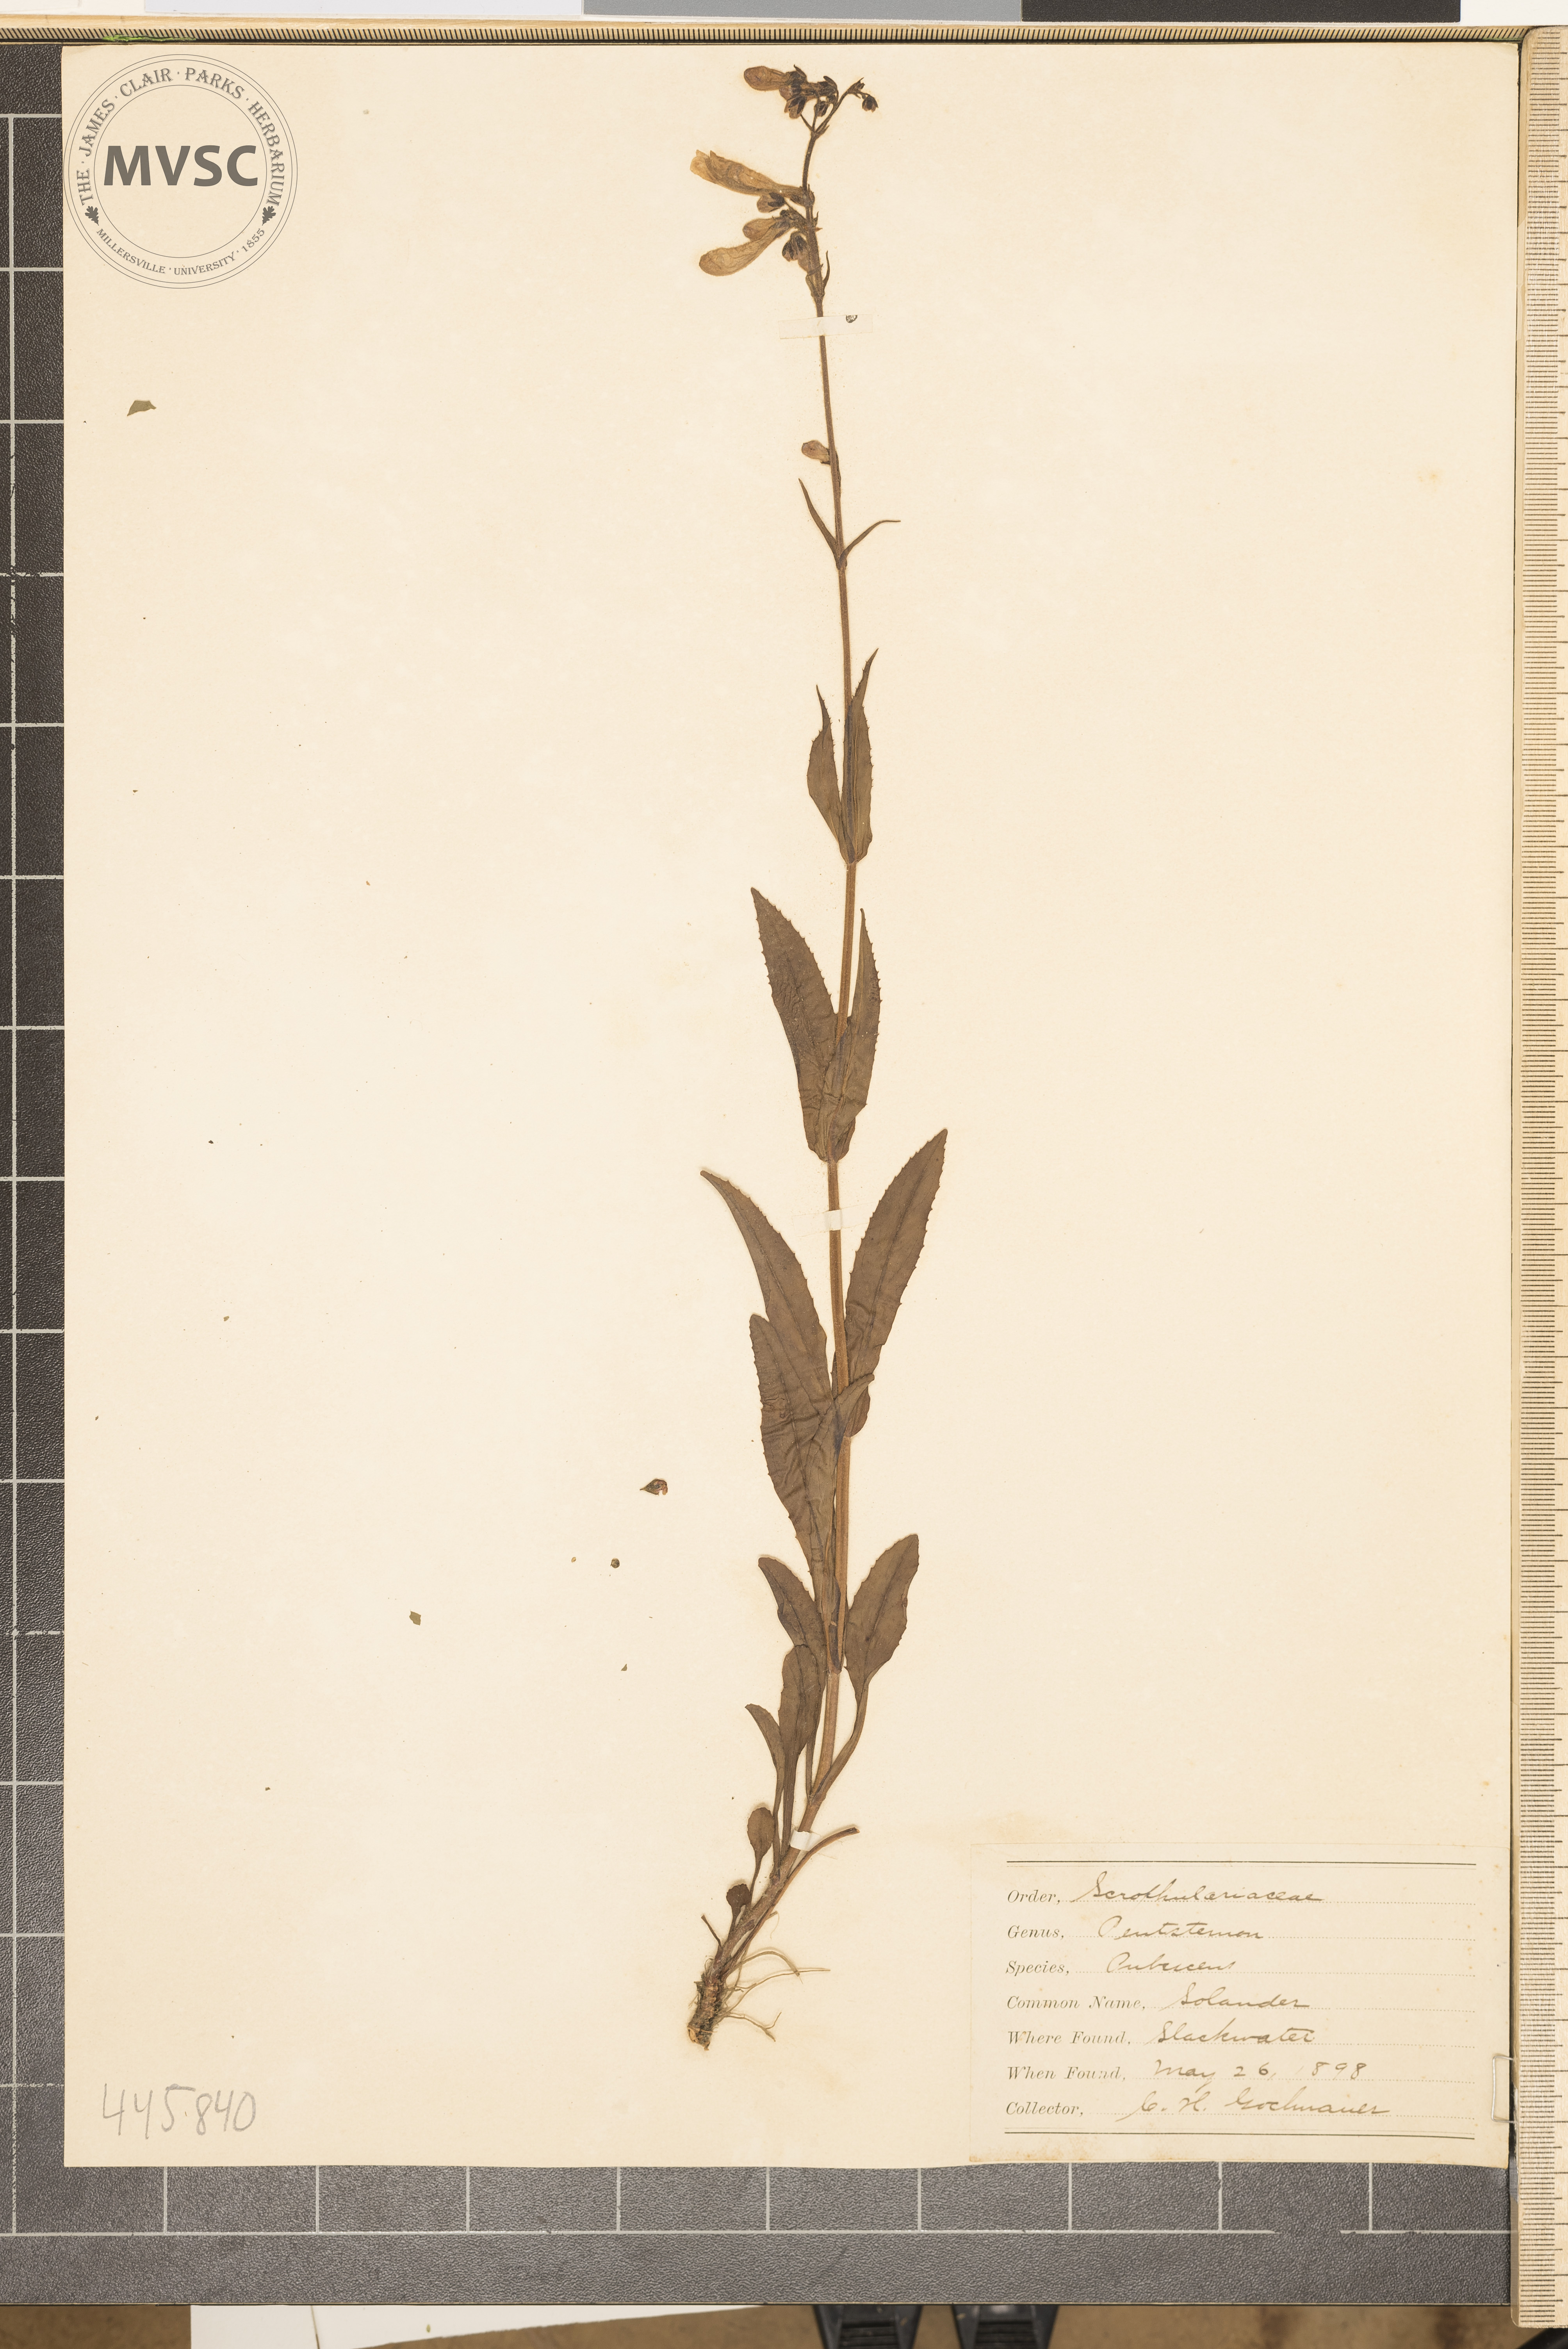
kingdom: Plantae
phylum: Tracheophyta
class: Magnoliopsida
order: Lamiales
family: Plantaginaceae
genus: Penstemon
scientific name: Penstemon pallidus
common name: Pale beardtongue
